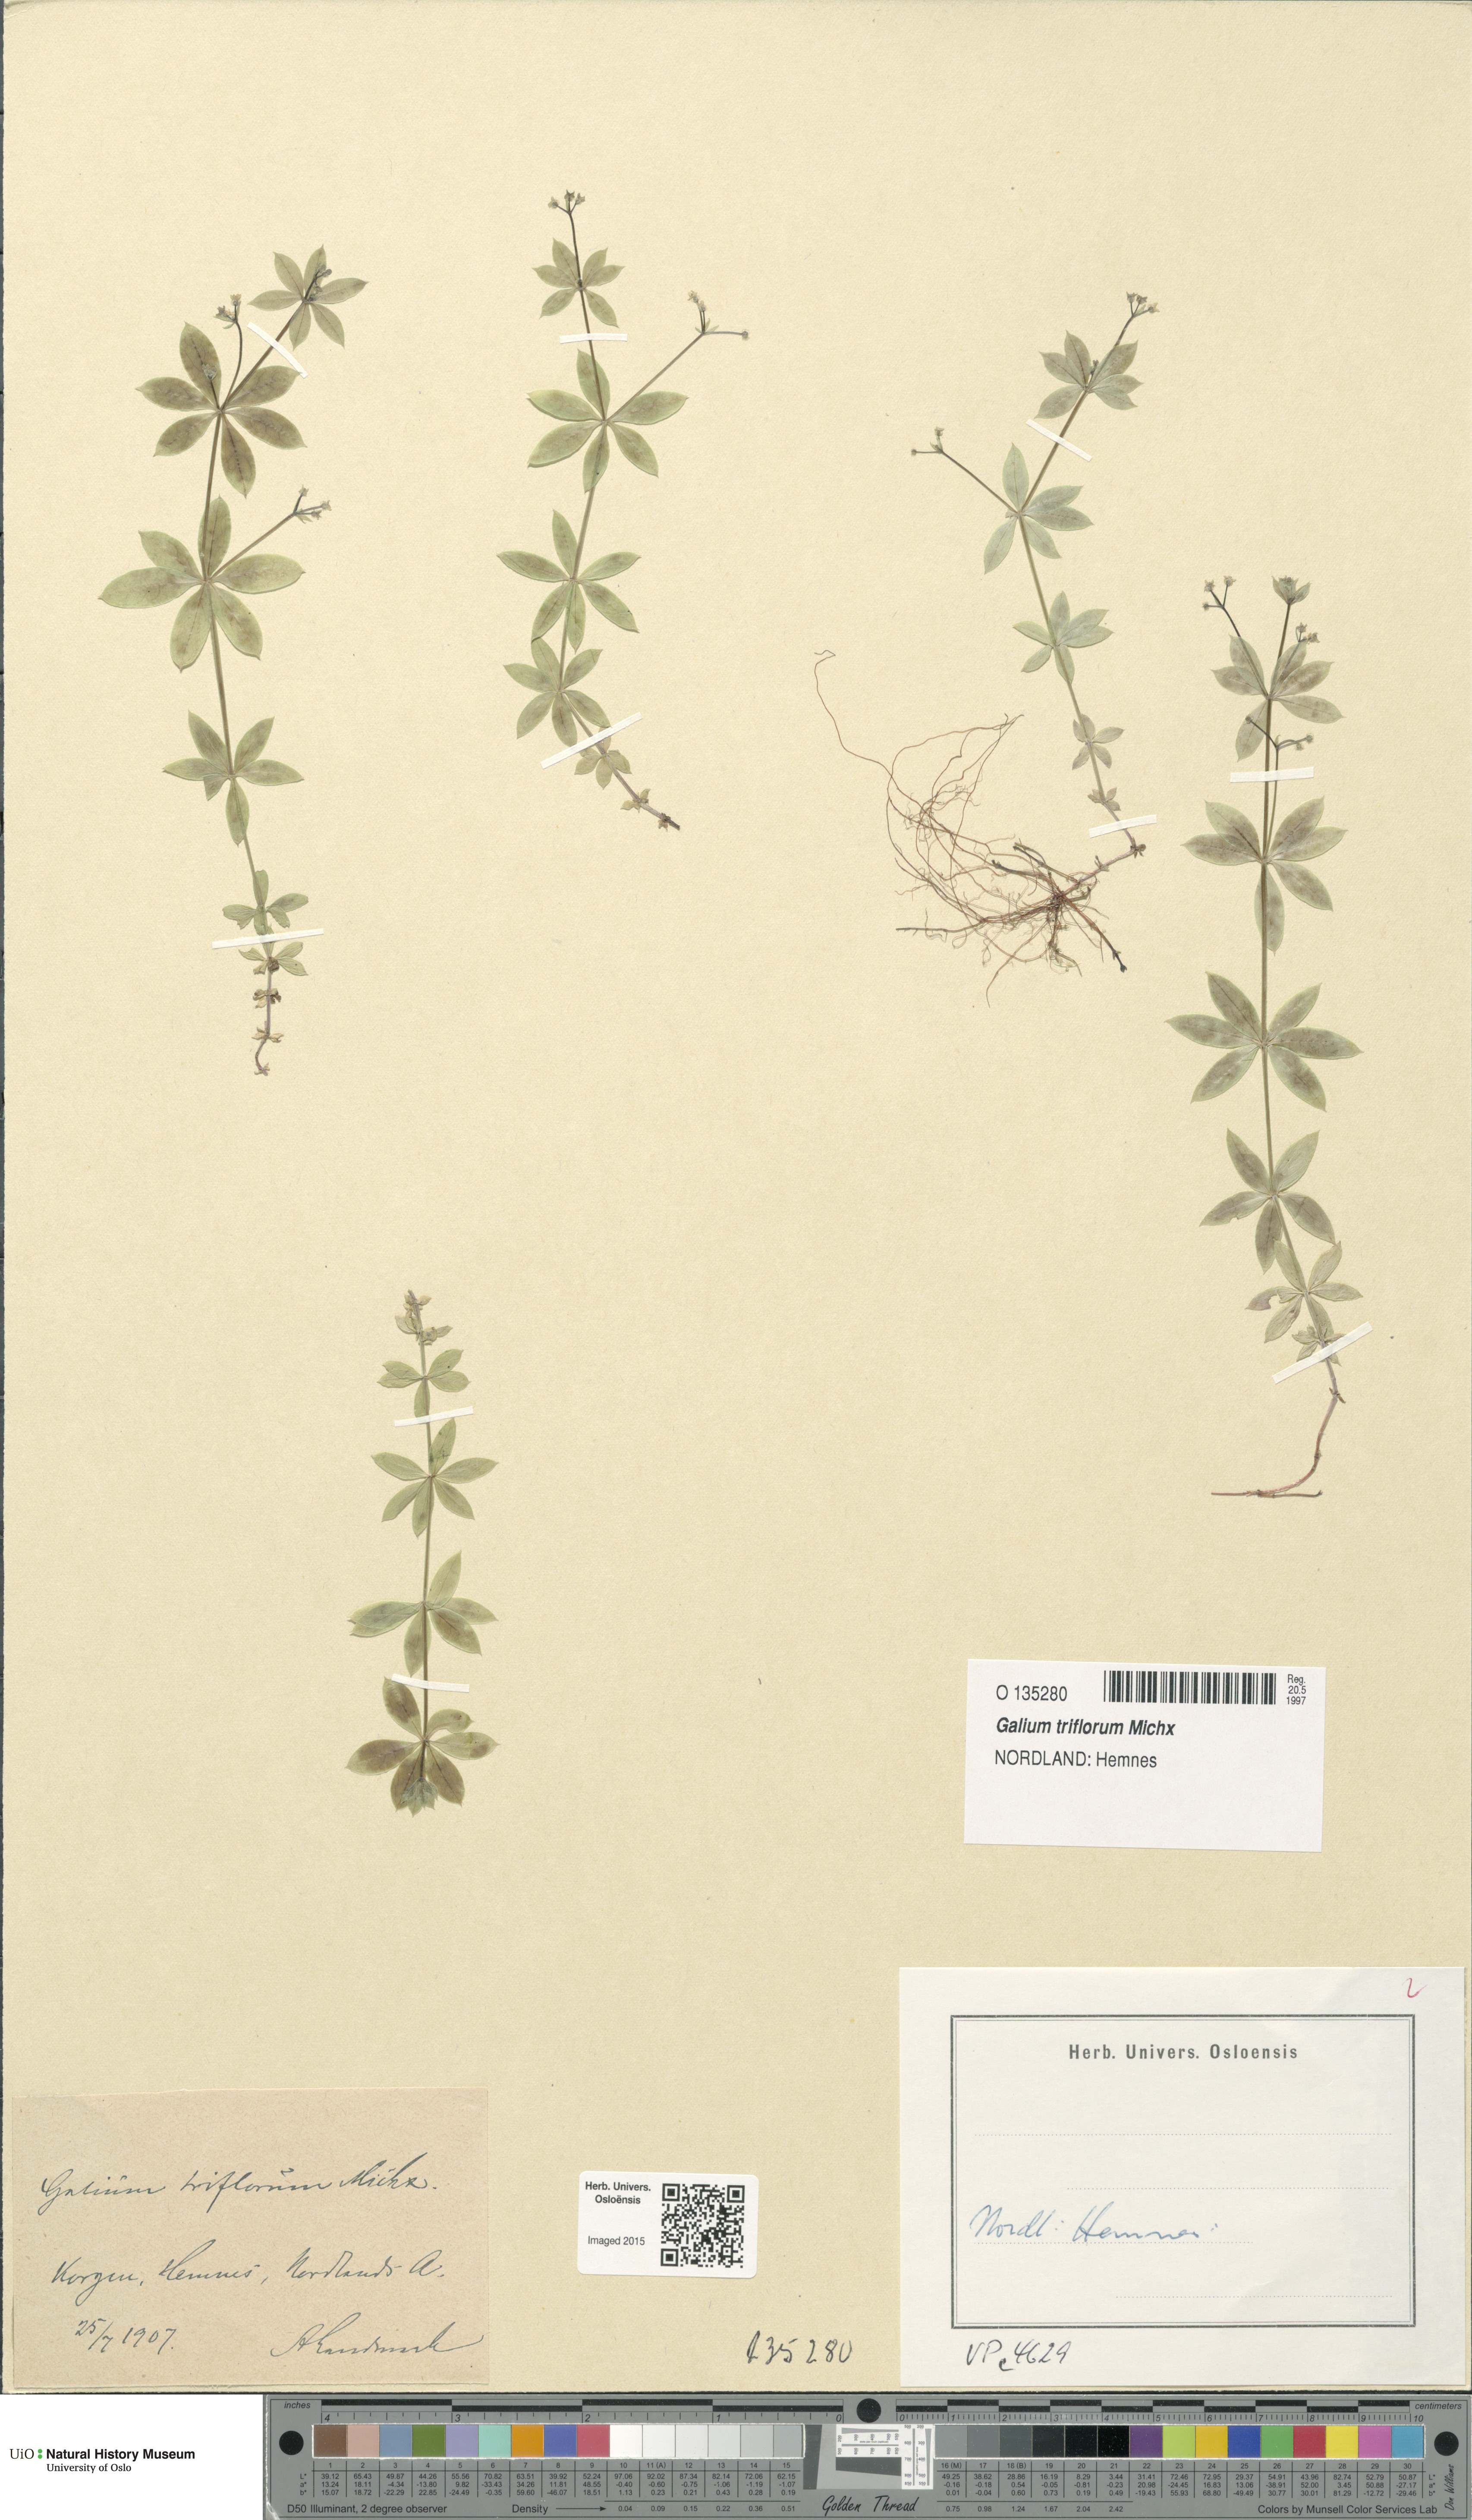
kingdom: Plantae
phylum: Tracheophyta
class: Magnoliopsida
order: Gentianales
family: Rubiaceae
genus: Galium
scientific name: Galium triflorum
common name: Fragrant bedstraw
